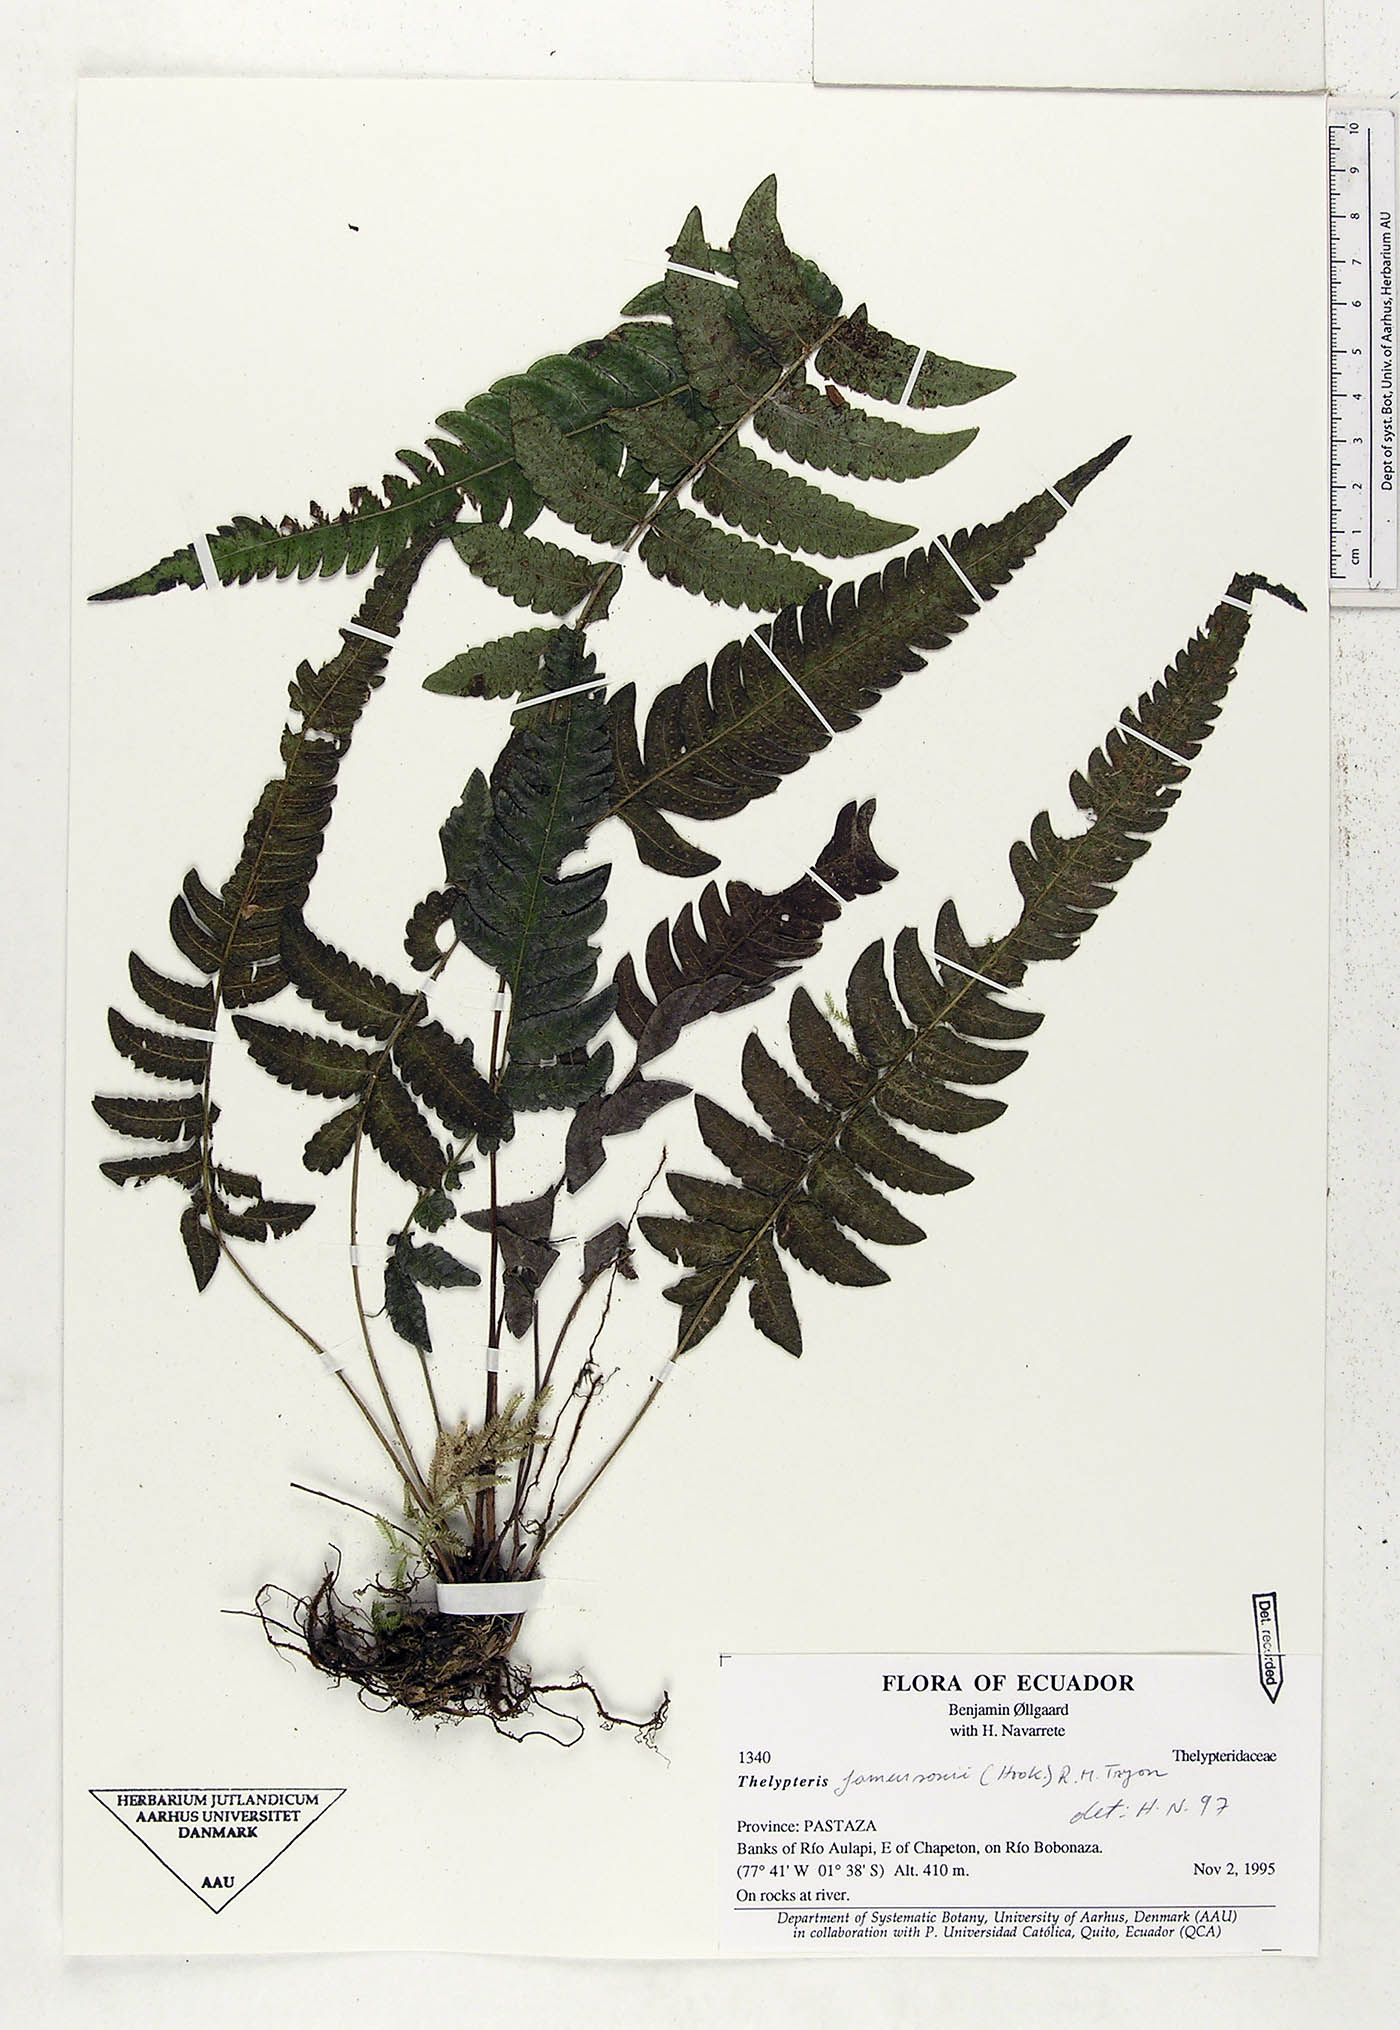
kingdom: Plantae
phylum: Tracheophyta
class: Polypodiopsida
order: Polypodiales
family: Thelypteridaceae
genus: Goniopteris
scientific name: Goniopteris jamesonii
